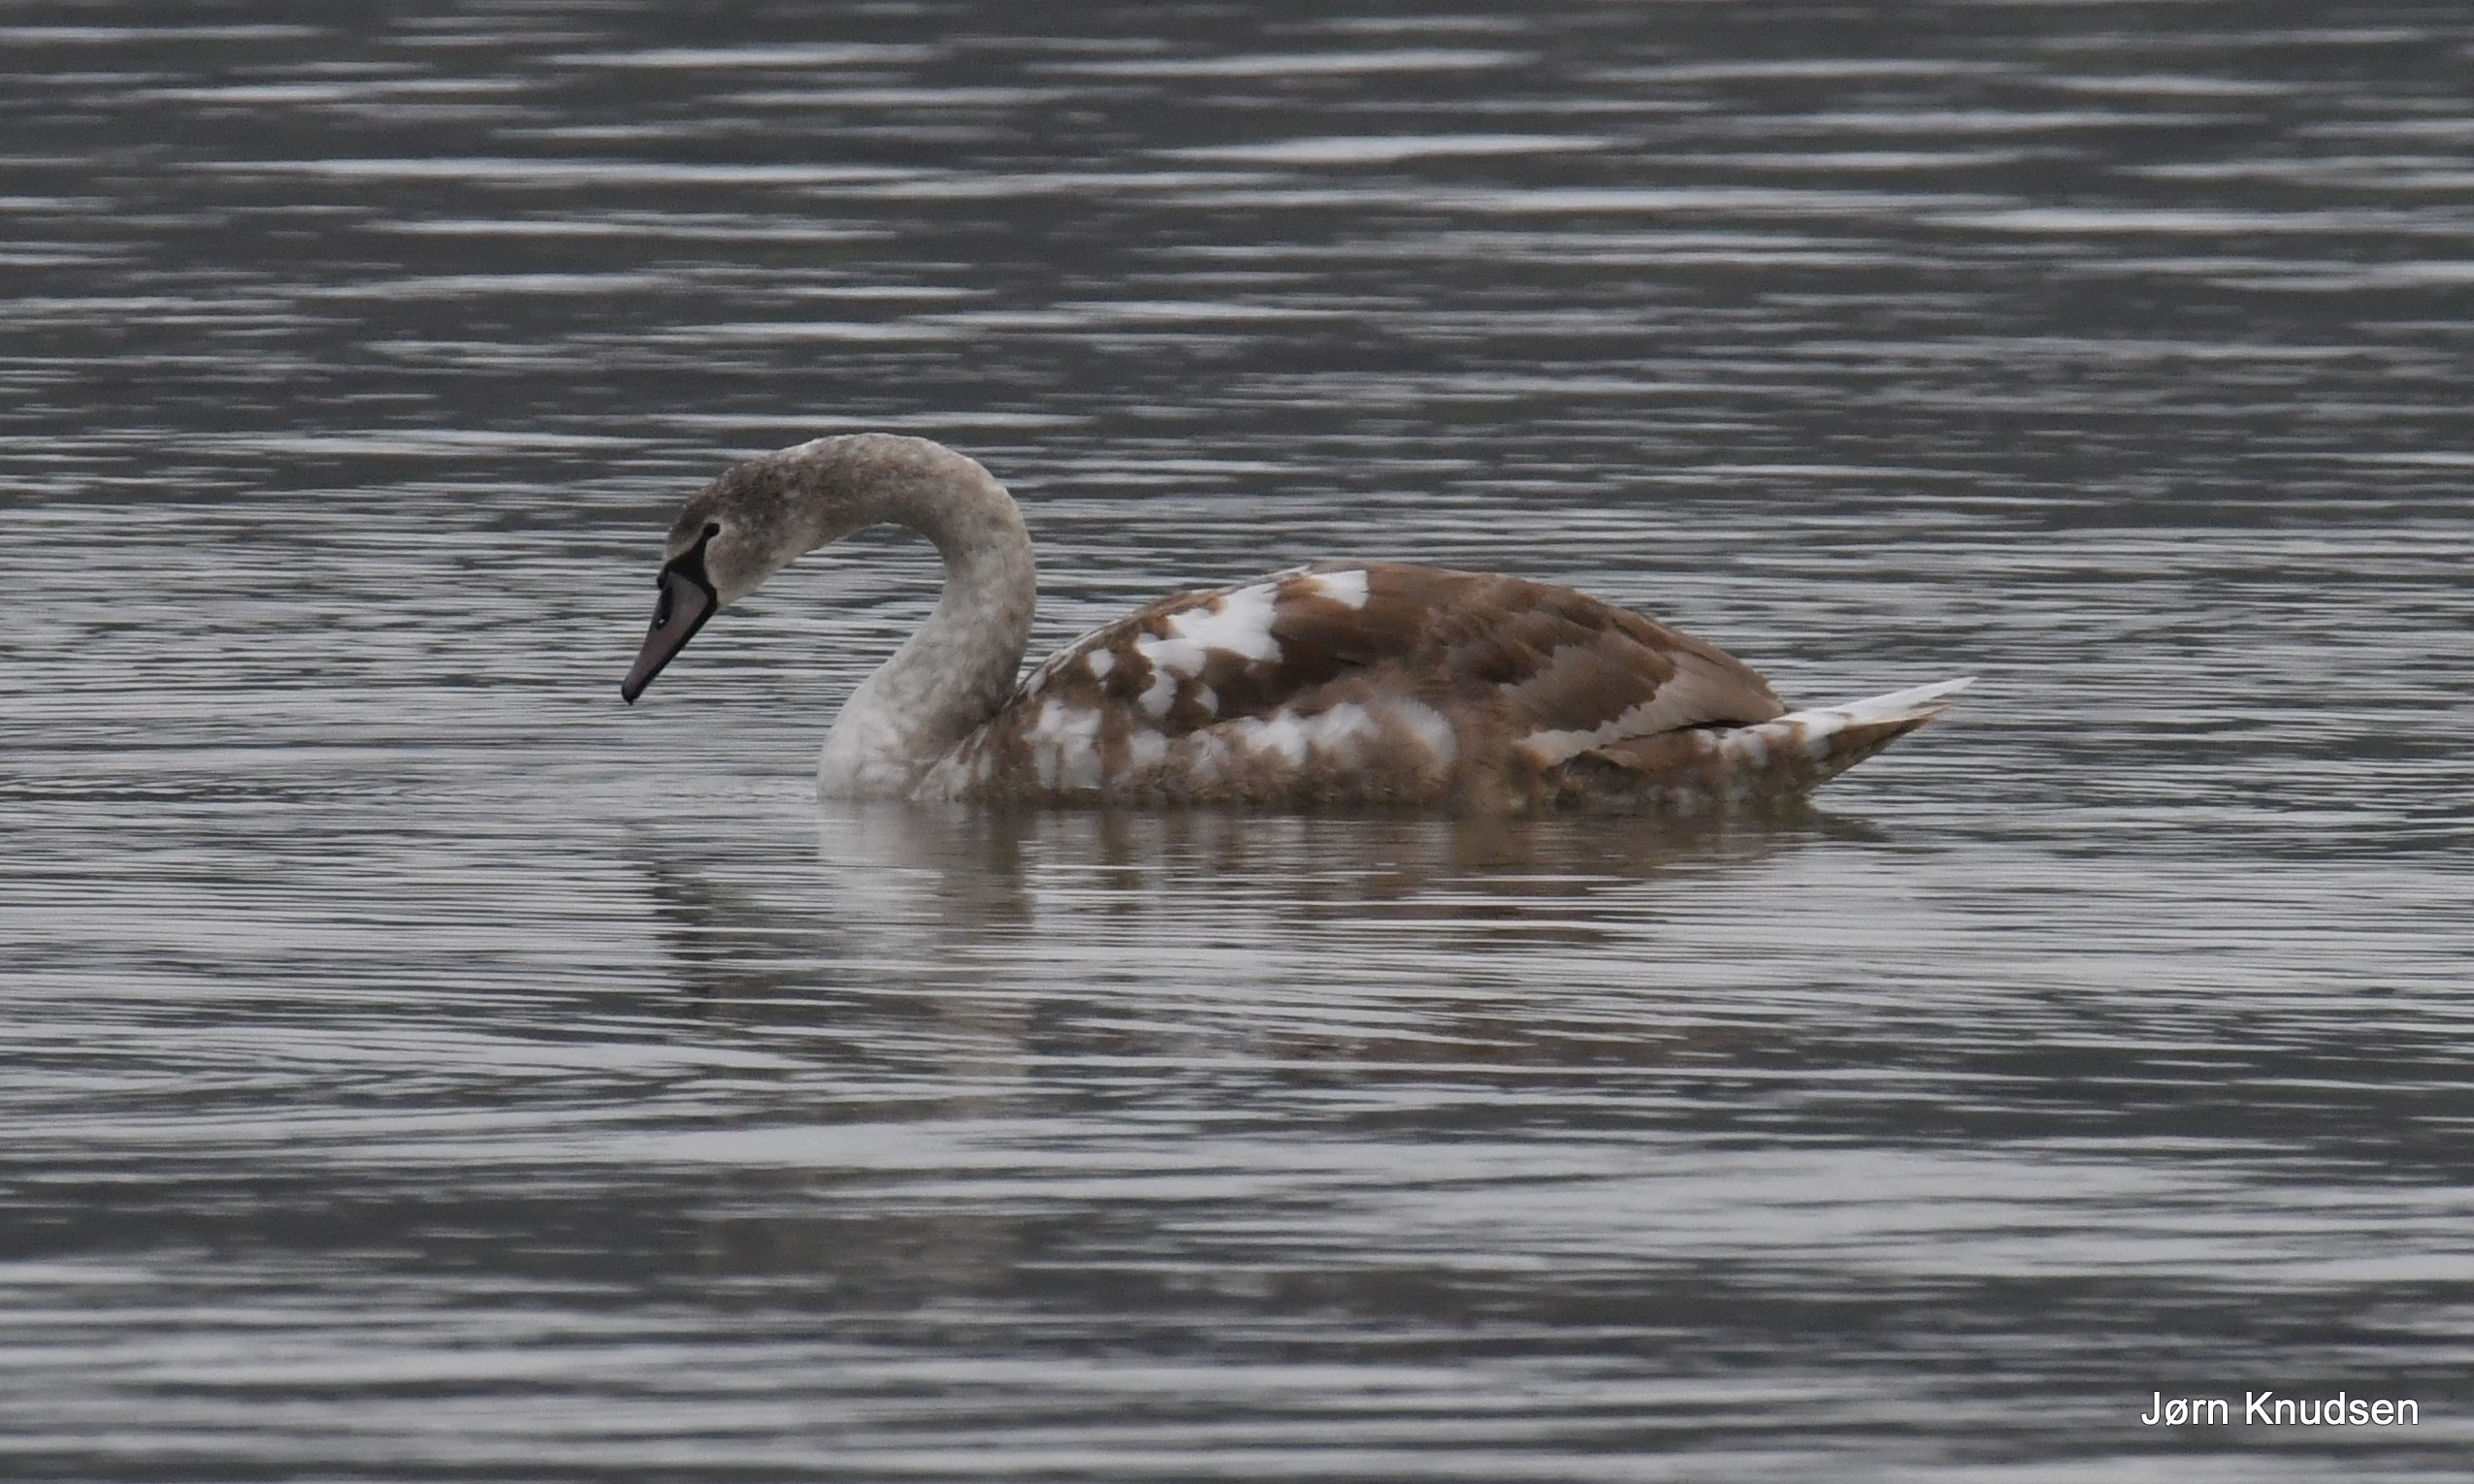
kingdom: Animalia
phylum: Chordata
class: Aves
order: Anseriformes
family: Anatidae
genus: Cygnus
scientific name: Cygnus olor
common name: Knopsvane
